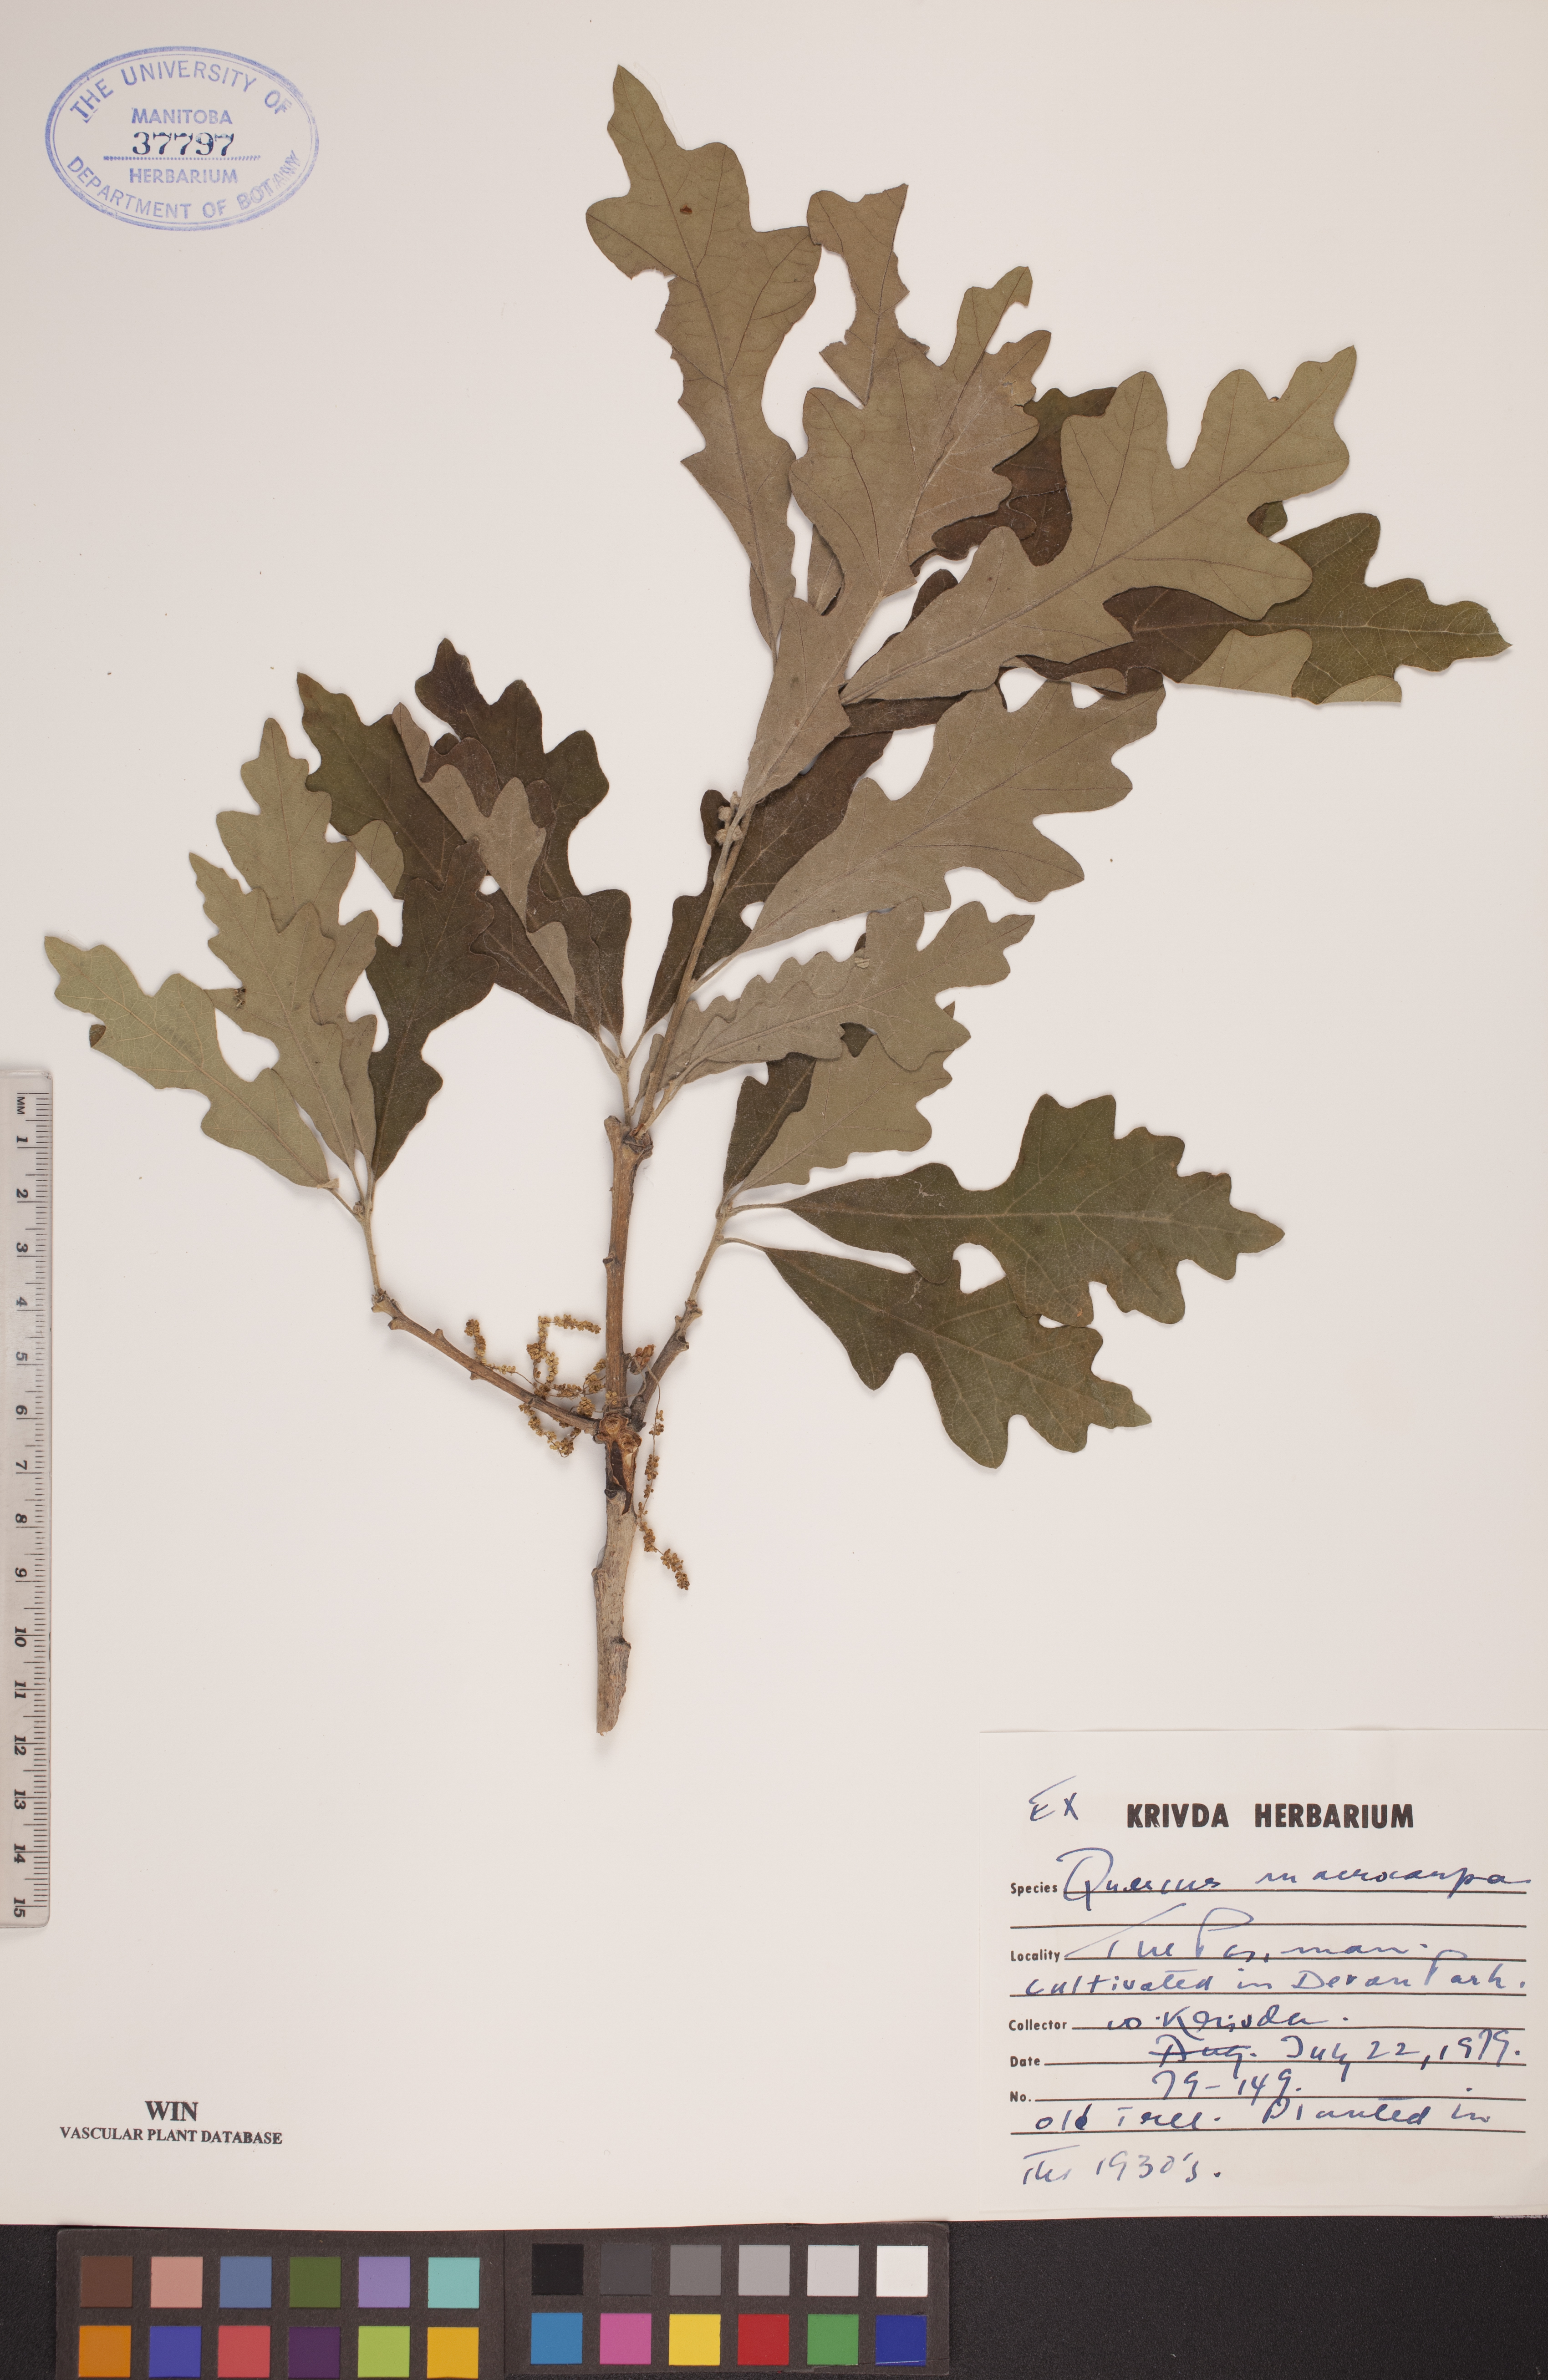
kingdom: Plantae
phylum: Tracheophyta
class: Magnoliopsida
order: Fagales
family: Fagaceae
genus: Quercus
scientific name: Quercus macrocarpa
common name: Bur oak
